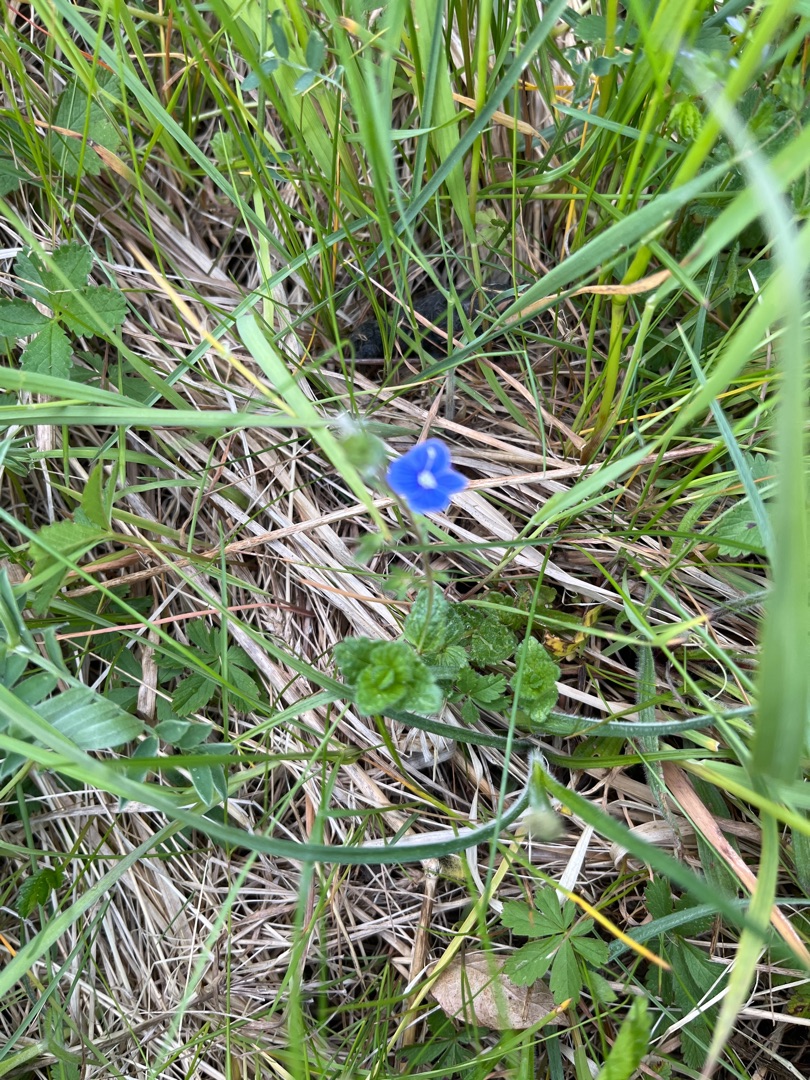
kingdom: Plantae
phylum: Tracheophyta
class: Magnoliopsida
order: Lamiales
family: Plantaginaceae
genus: Veronica
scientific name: Veronica chamaedrys
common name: Tveskægget ærenpris
